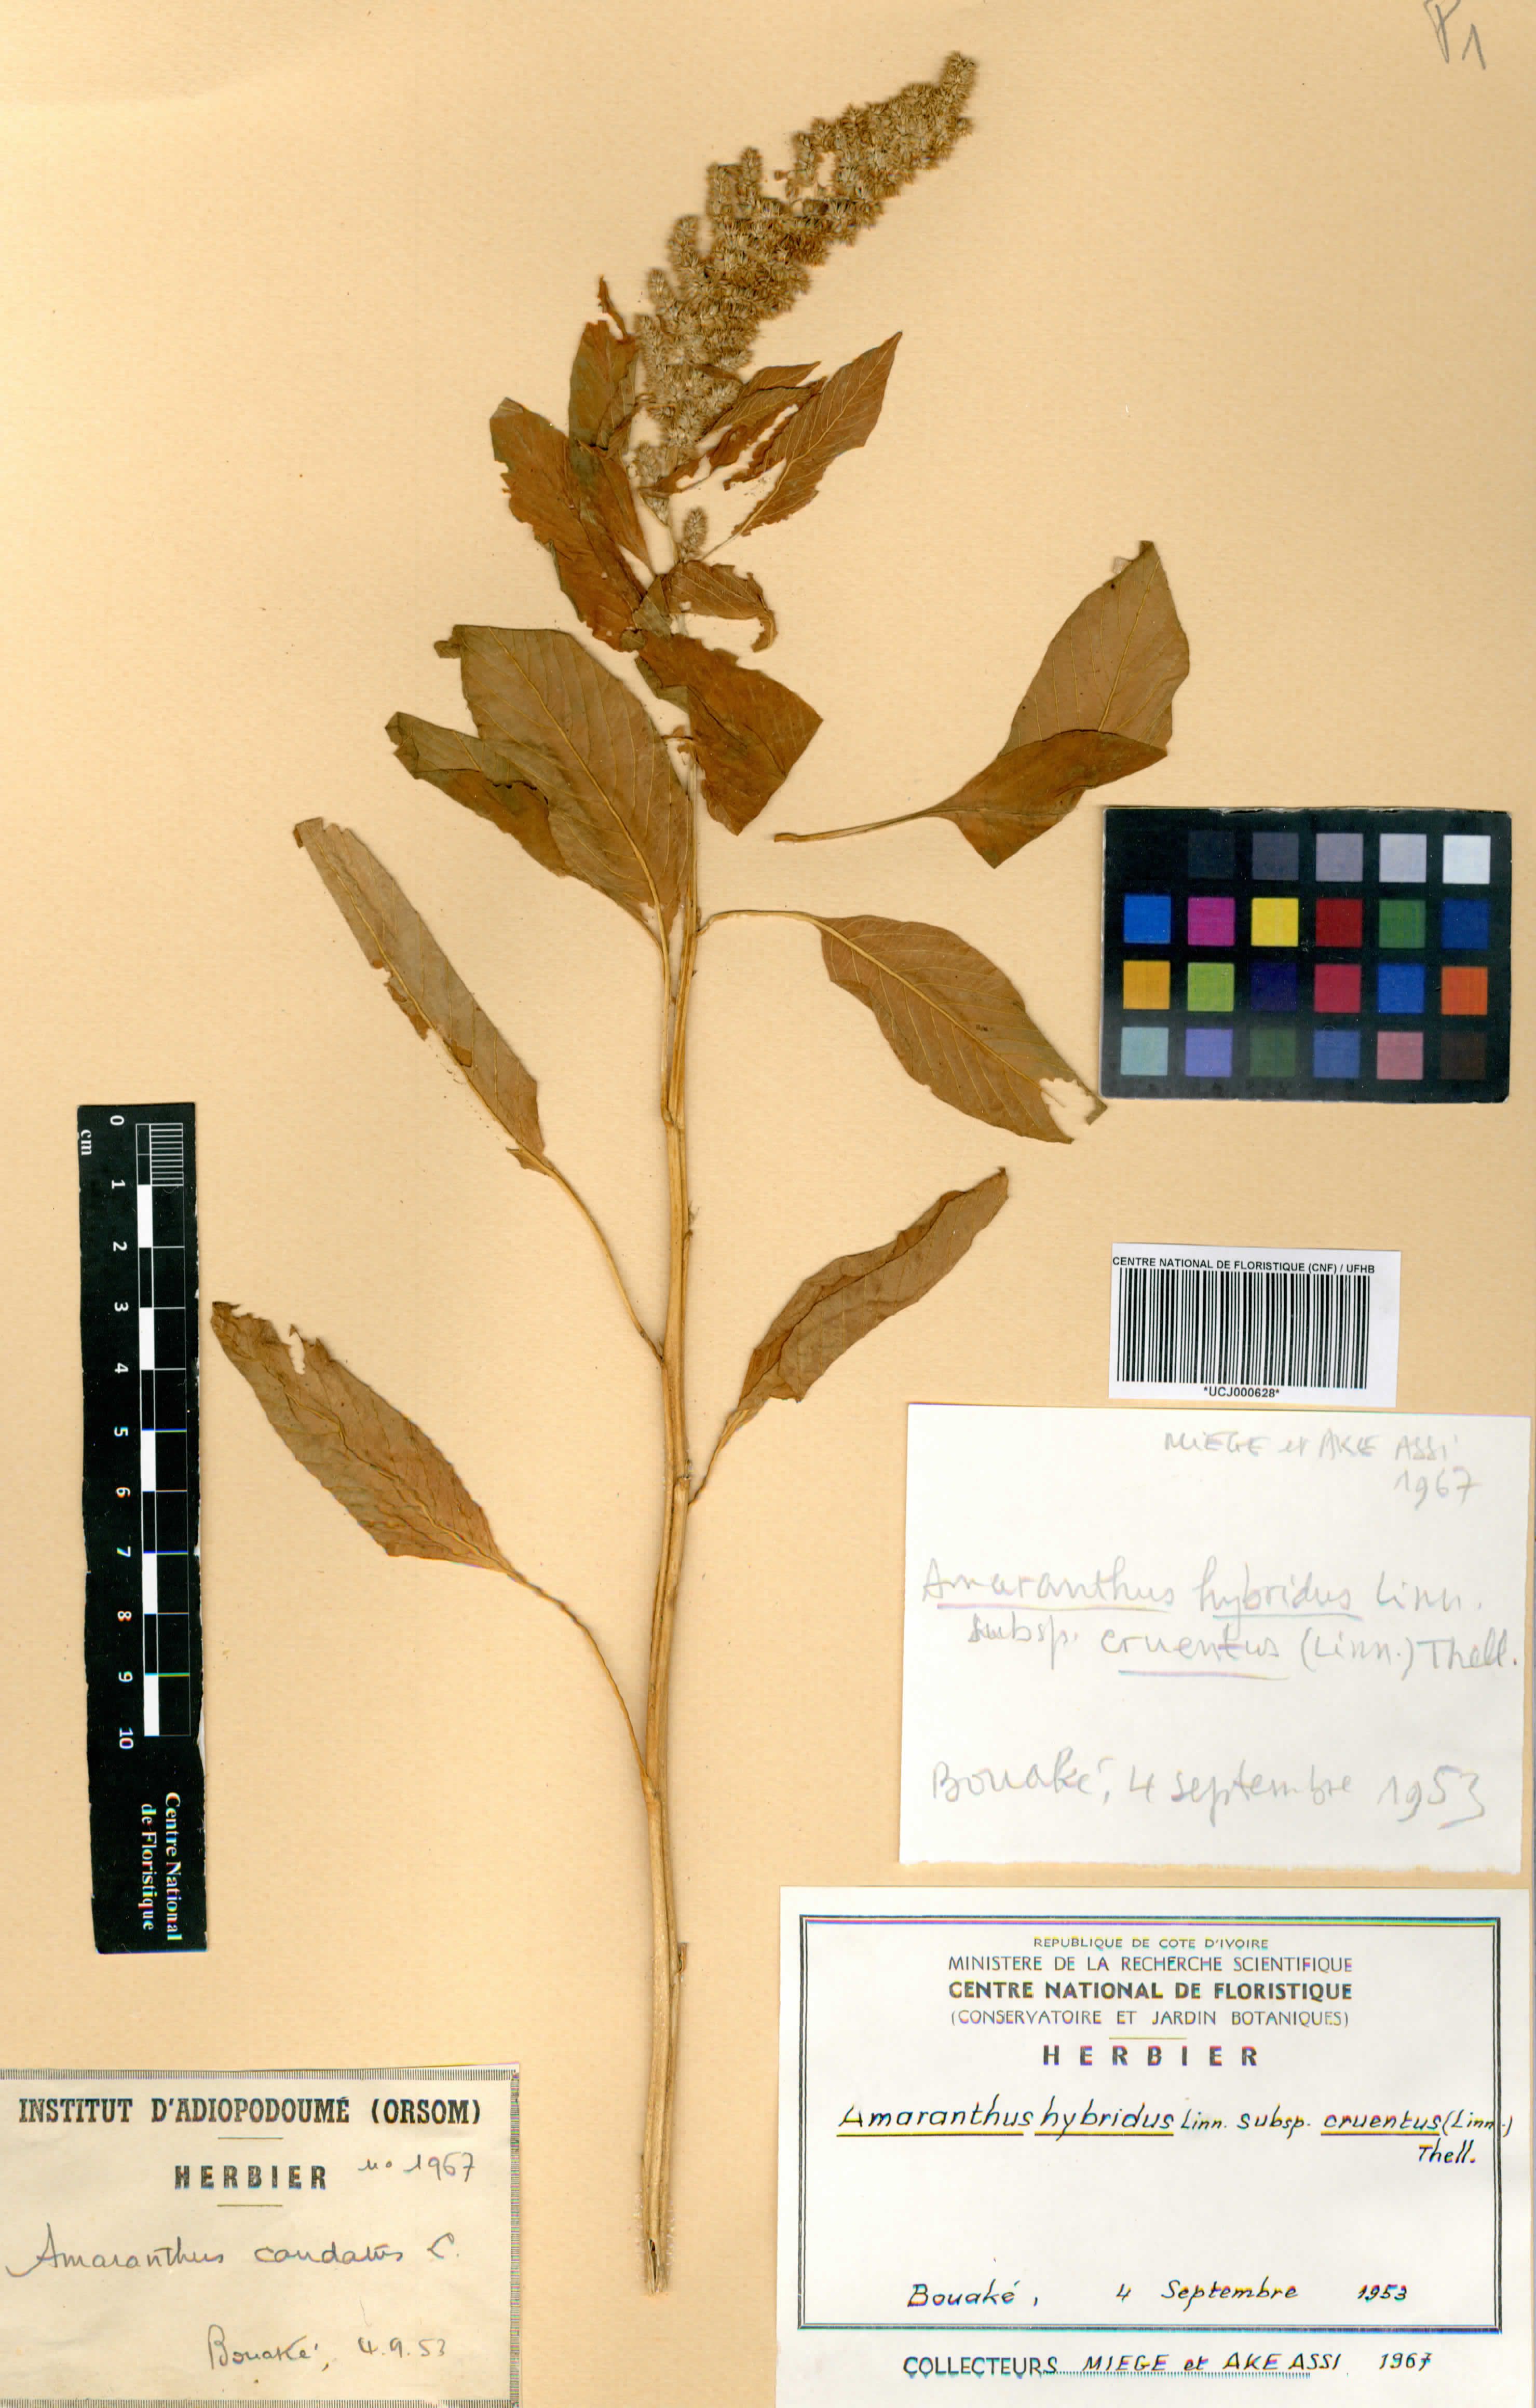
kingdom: Plantae
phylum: Tracheophyta
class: Magnoliopsida
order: Caryophyllales
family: Amaranthaceae
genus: Amaranthus
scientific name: Amaranthus hybridus
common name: Green amaranth
